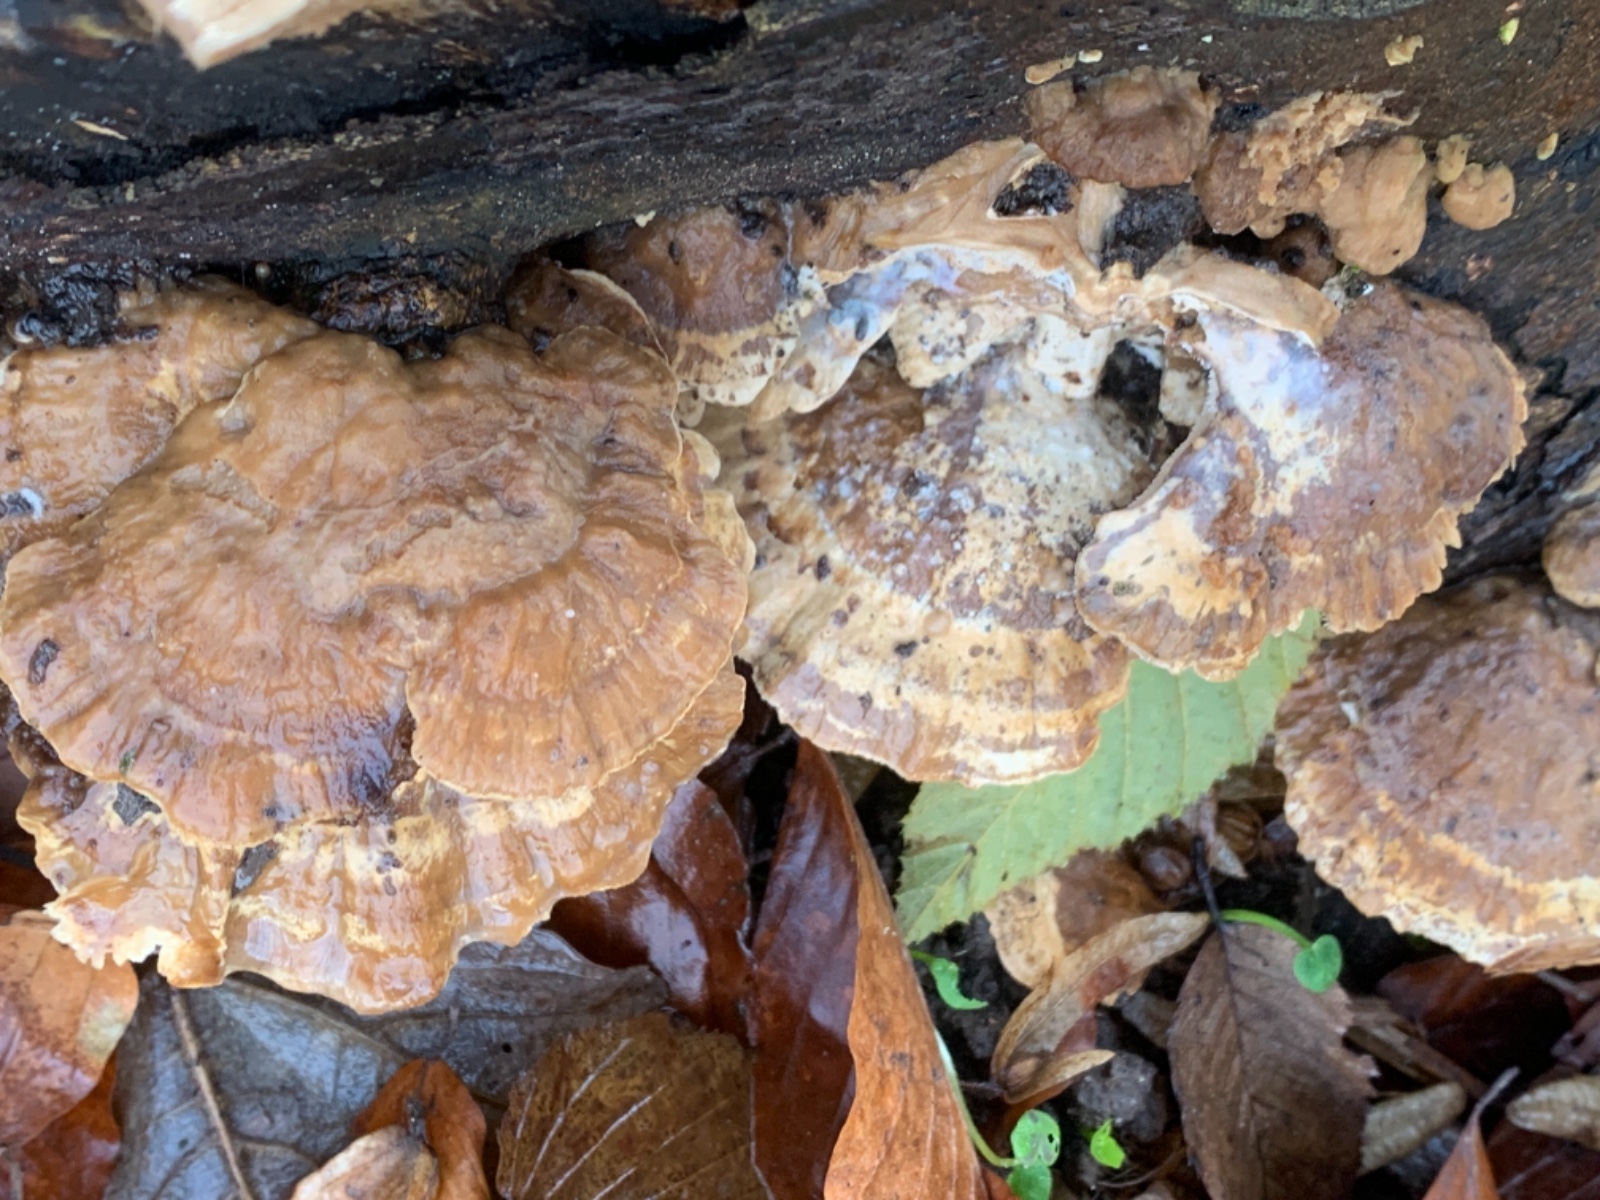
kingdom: Fungi
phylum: Basidiomycota
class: Agaricomycetes
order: Polyporales
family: Phanerochaetaceae
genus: Bjerkandera
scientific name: Bjerkandera fumosa
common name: grågul sodporesvamp
